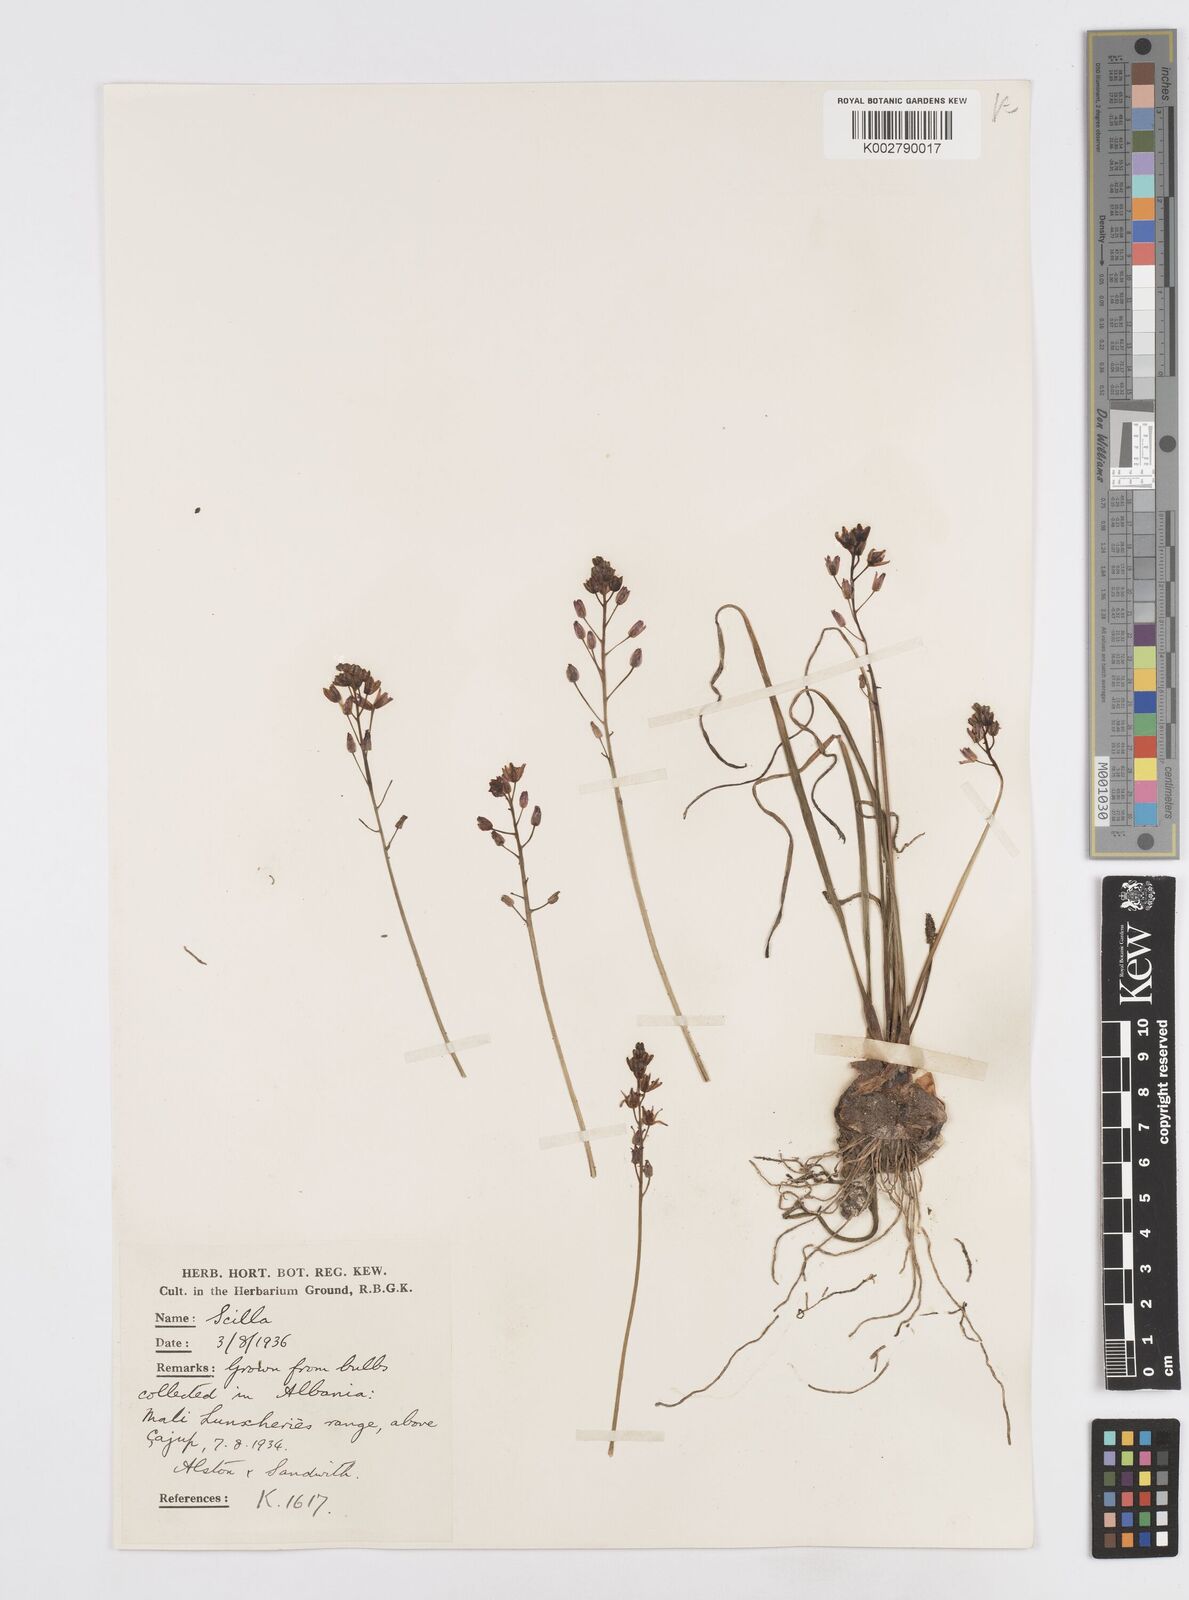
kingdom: Plantae
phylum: Tracheophyta
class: Liliopsida
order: Asparagales
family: Asparagaceae
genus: Prospero
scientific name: Prospero autumnale
